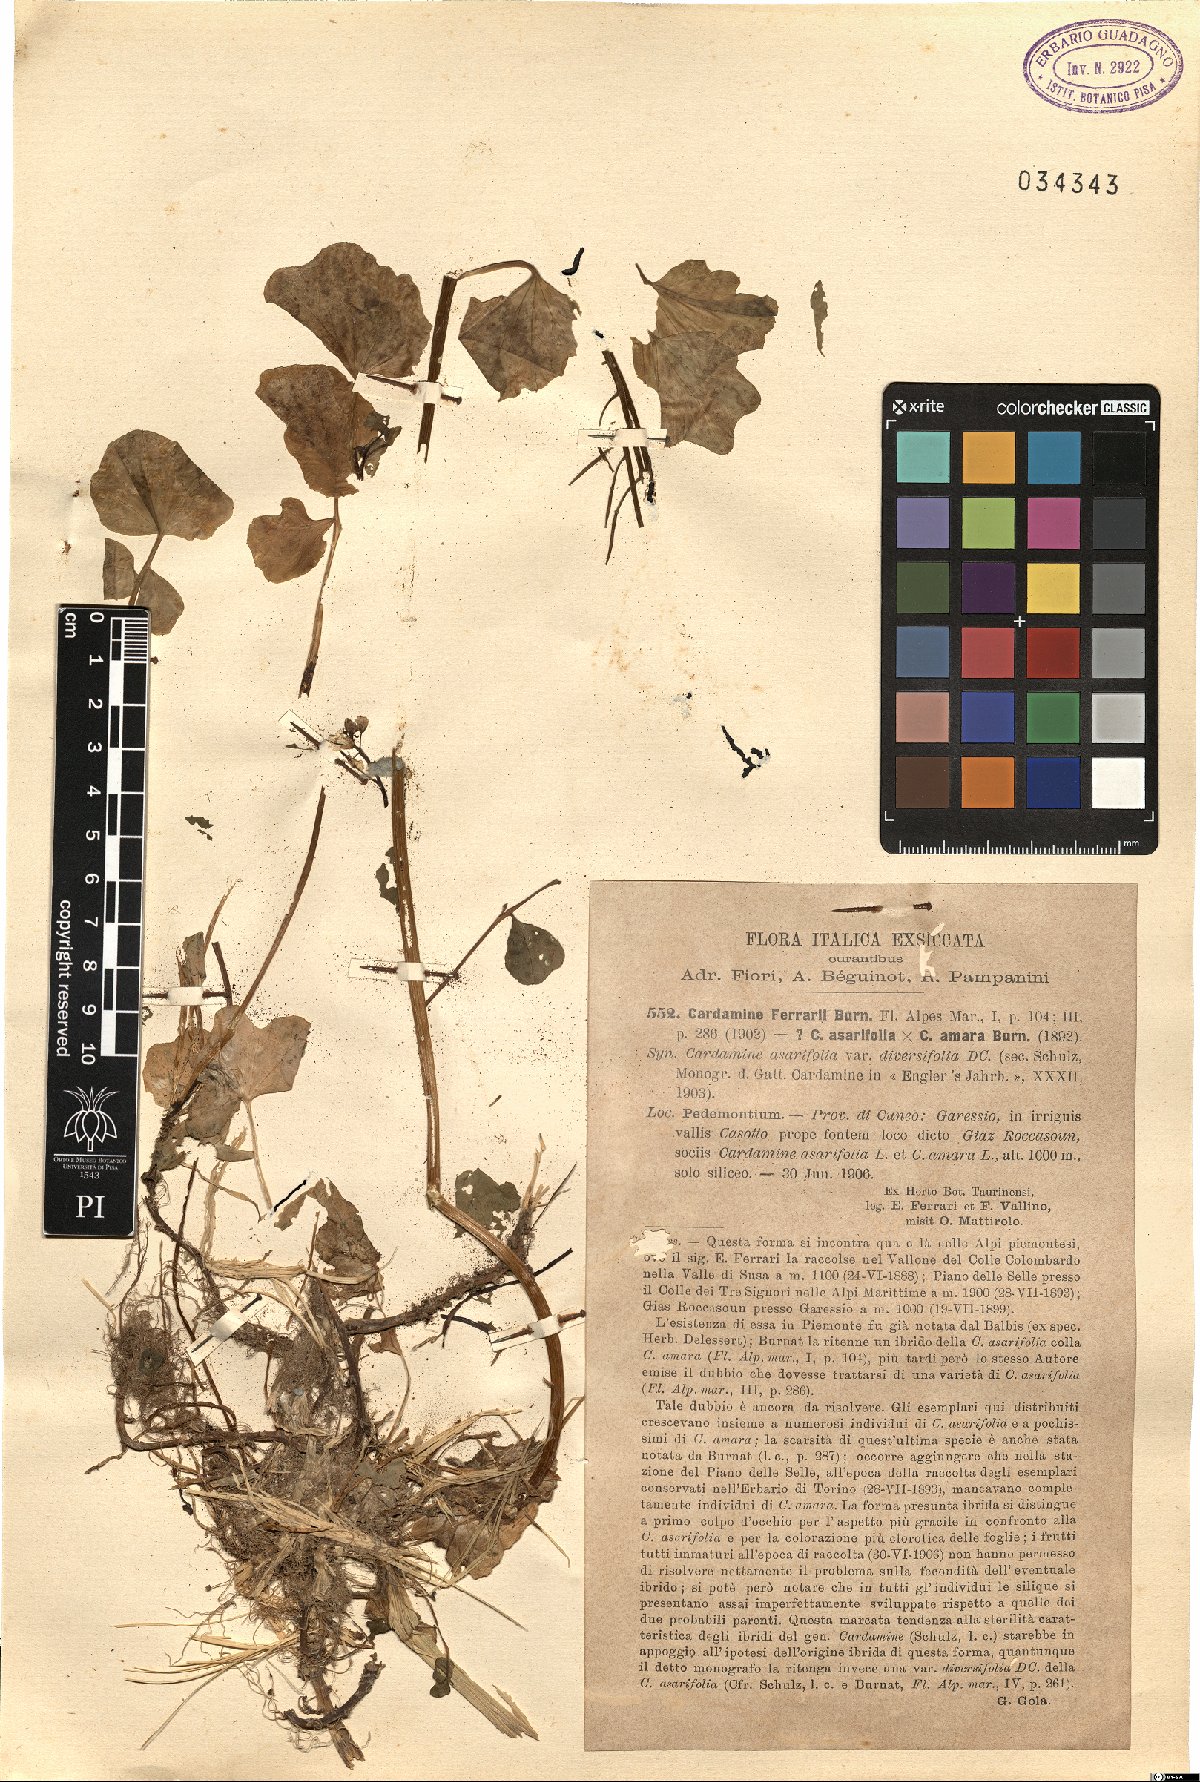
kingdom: Plantae
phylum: Tracheophyta
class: Magnoliopsida
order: Brassicales
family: Brassicaceae
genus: Cardamine
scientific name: Cardamine asarifolia
